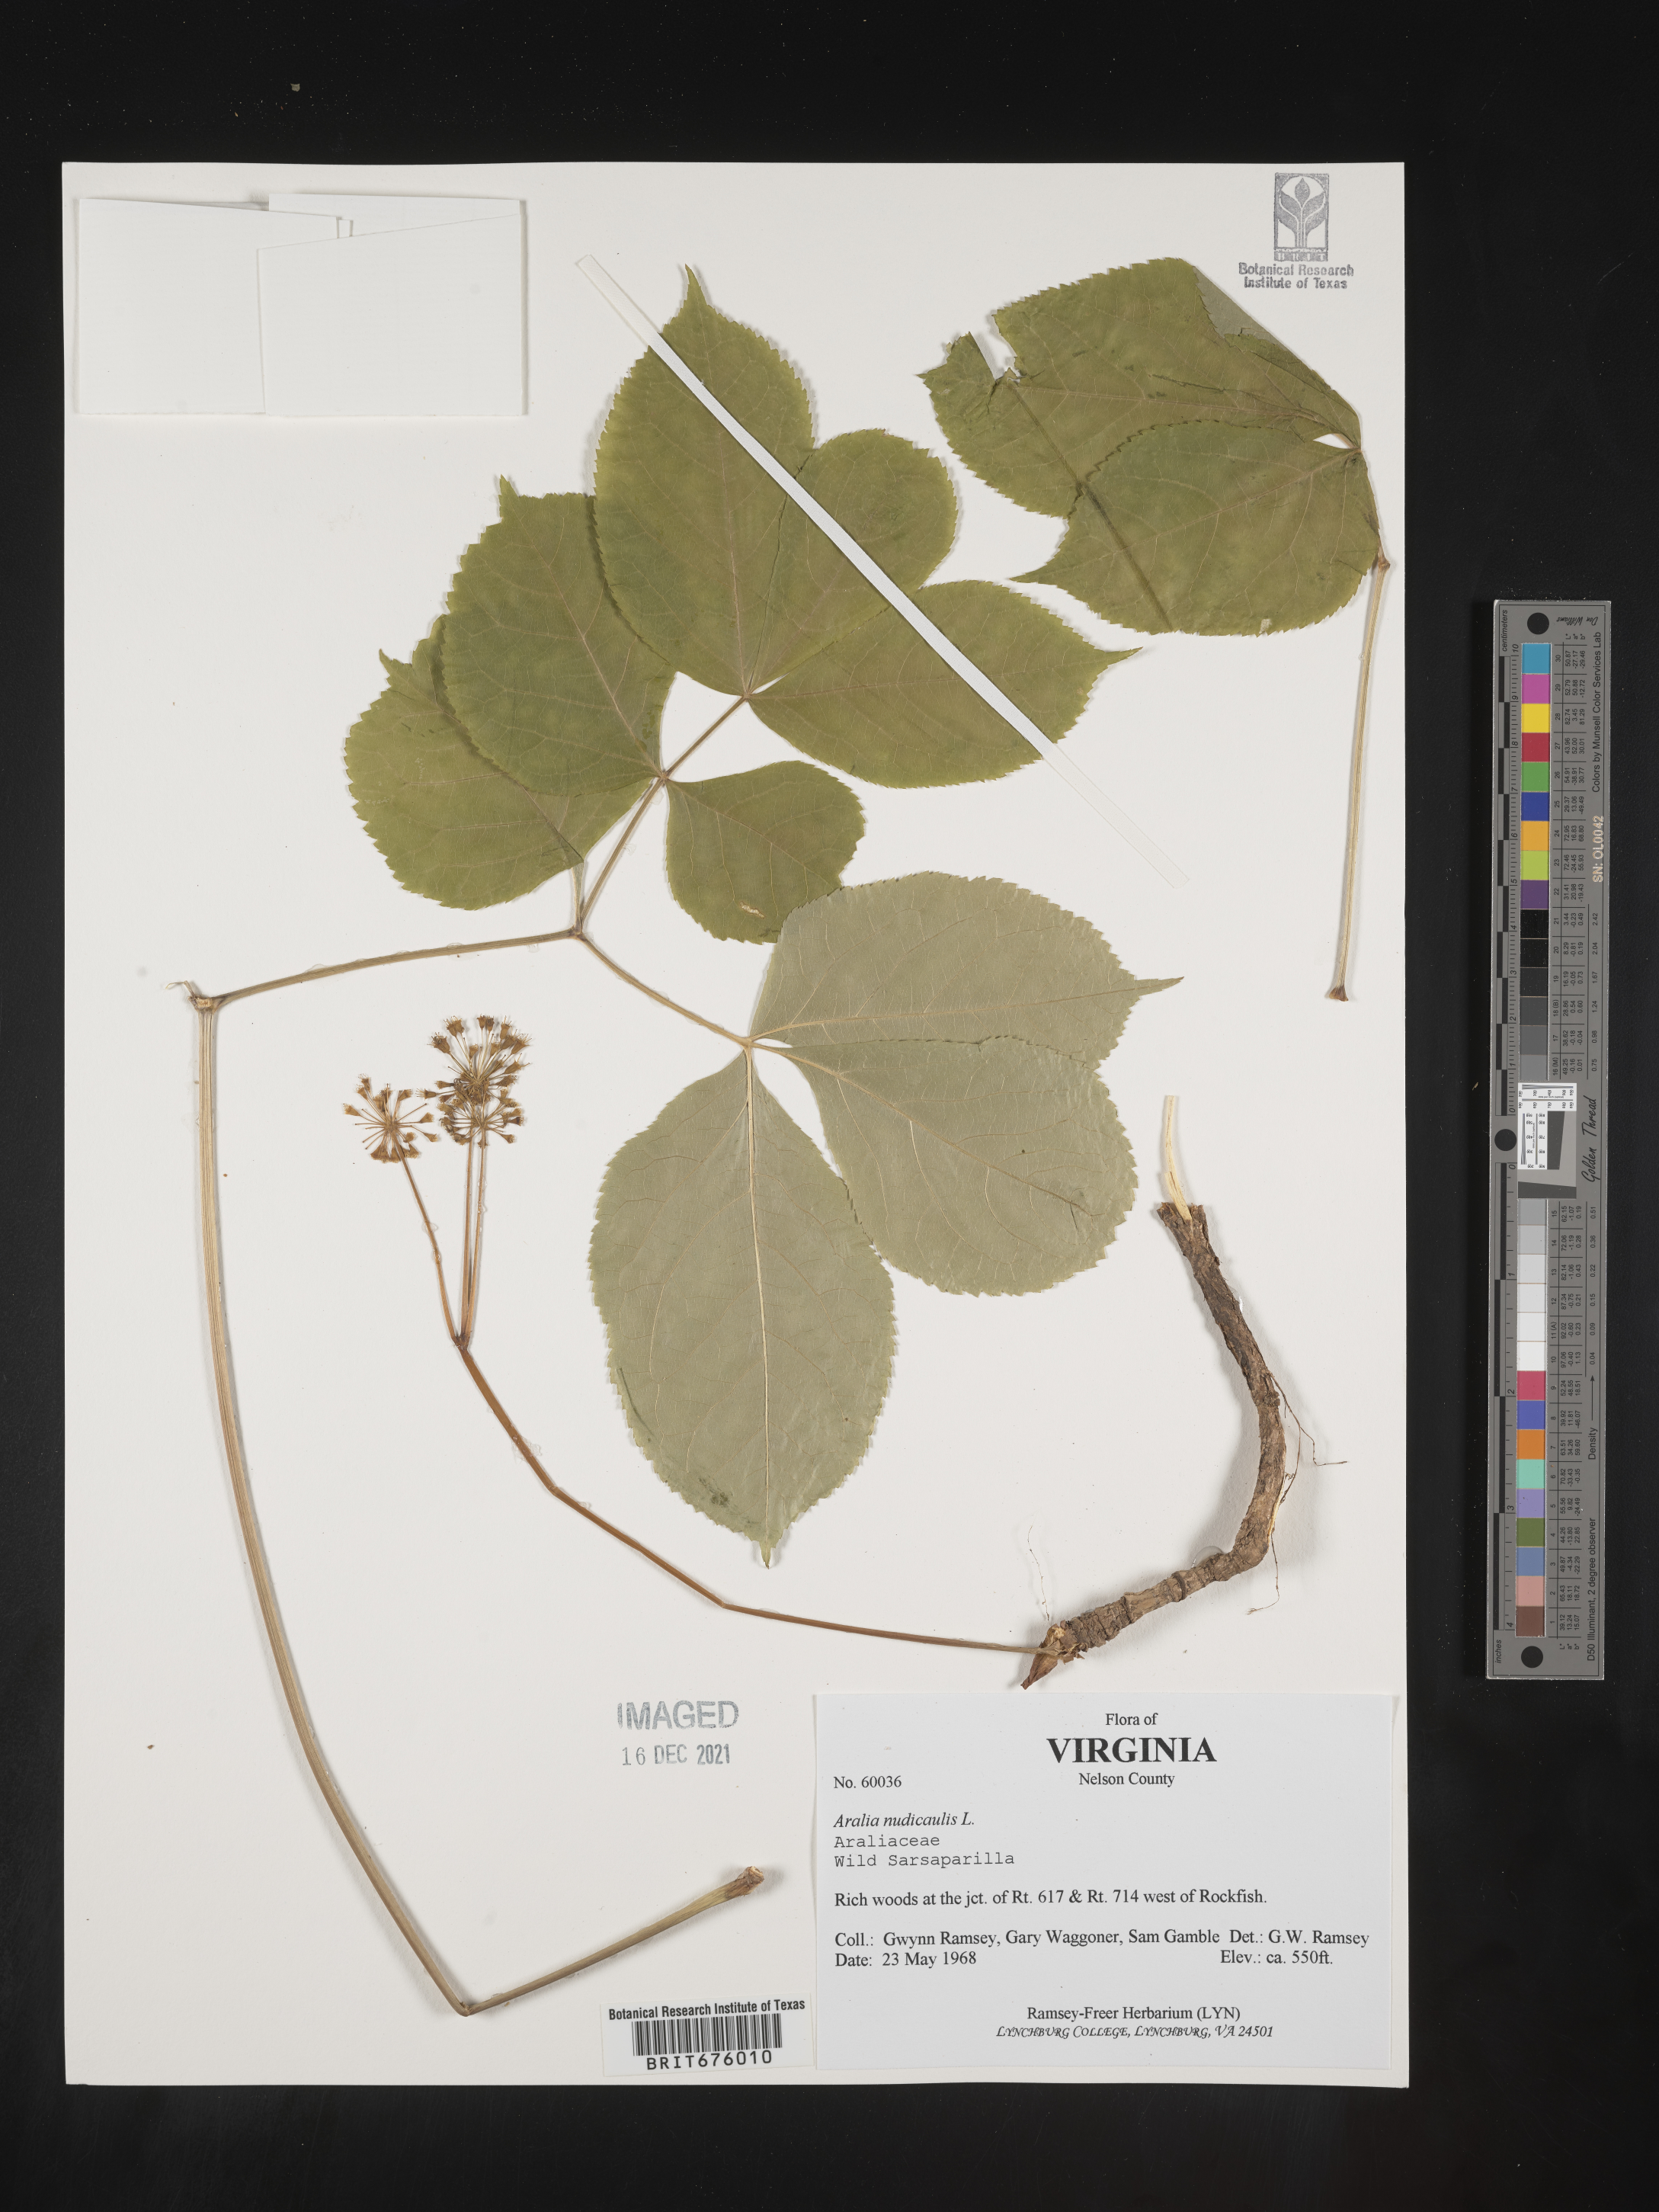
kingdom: Plantae
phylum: Tracheophyta
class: Magnoliopsida
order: Apiales
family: Araliaceae
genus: Aralia
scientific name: Aralia nudicaulis
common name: Wild sarsaparilla
